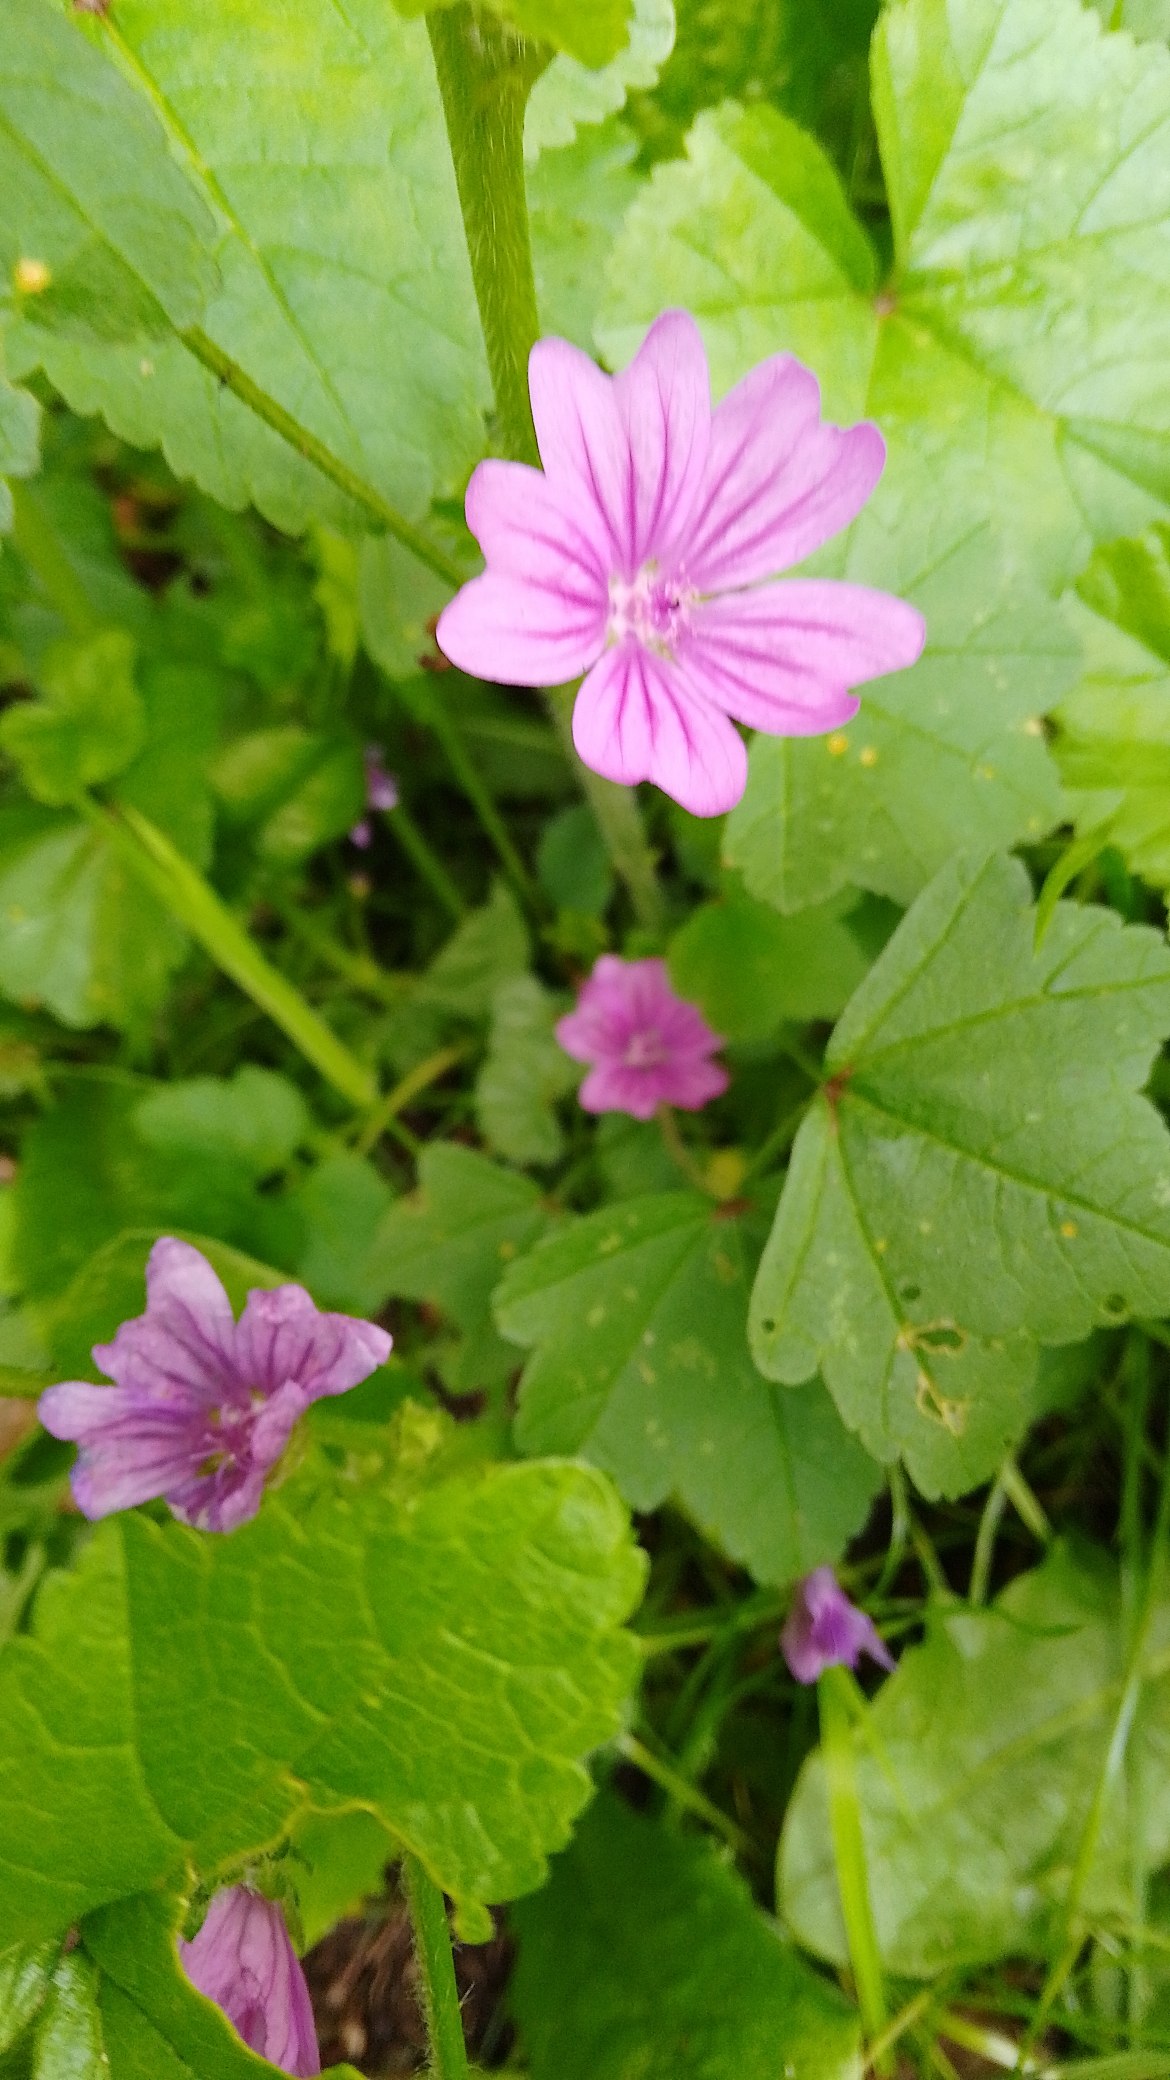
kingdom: Plantae
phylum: Tracheophyta
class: Magnoliopsida
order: Malvales
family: Malvaceae
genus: Malva
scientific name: Malva sylvestris
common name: Almindelig katost
